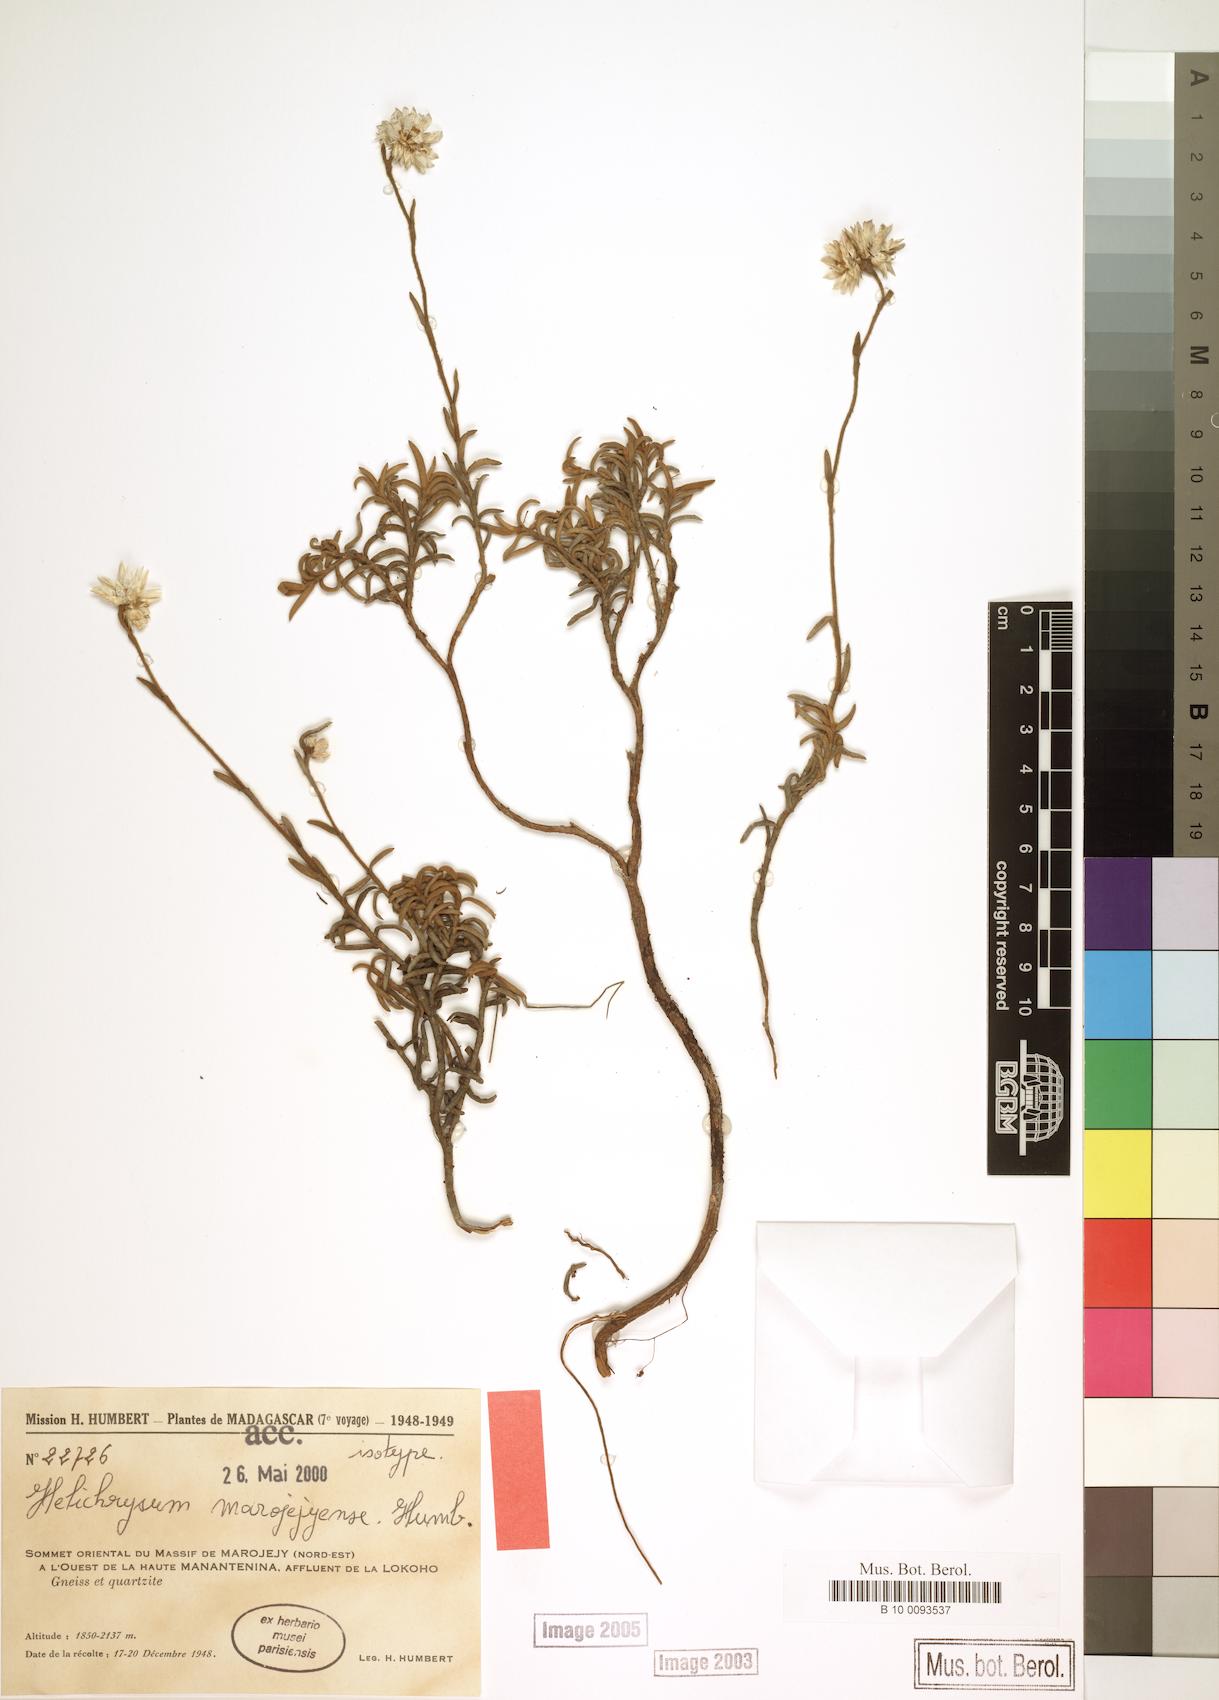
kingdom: Plantae
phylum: Tracheophyta
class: Magnoliopsida
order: Asterales
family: Asteraceae
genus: Helichrysum
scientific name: Helichrysum marojejyense
